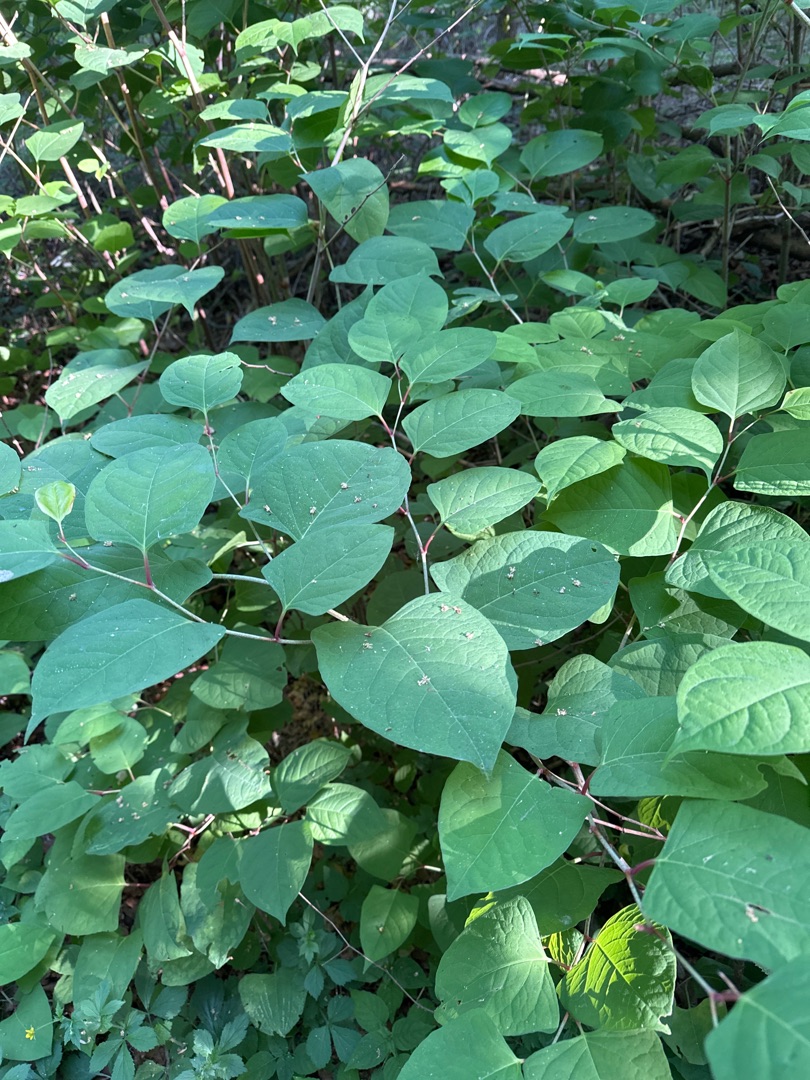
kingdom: Plantae
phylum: Tracheophyta
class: Magnoliopsida
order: Caryophyllales
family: Polygonaceae
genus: Reynoutria
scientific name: Reynoutria japonica
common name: Japan-pileurt
